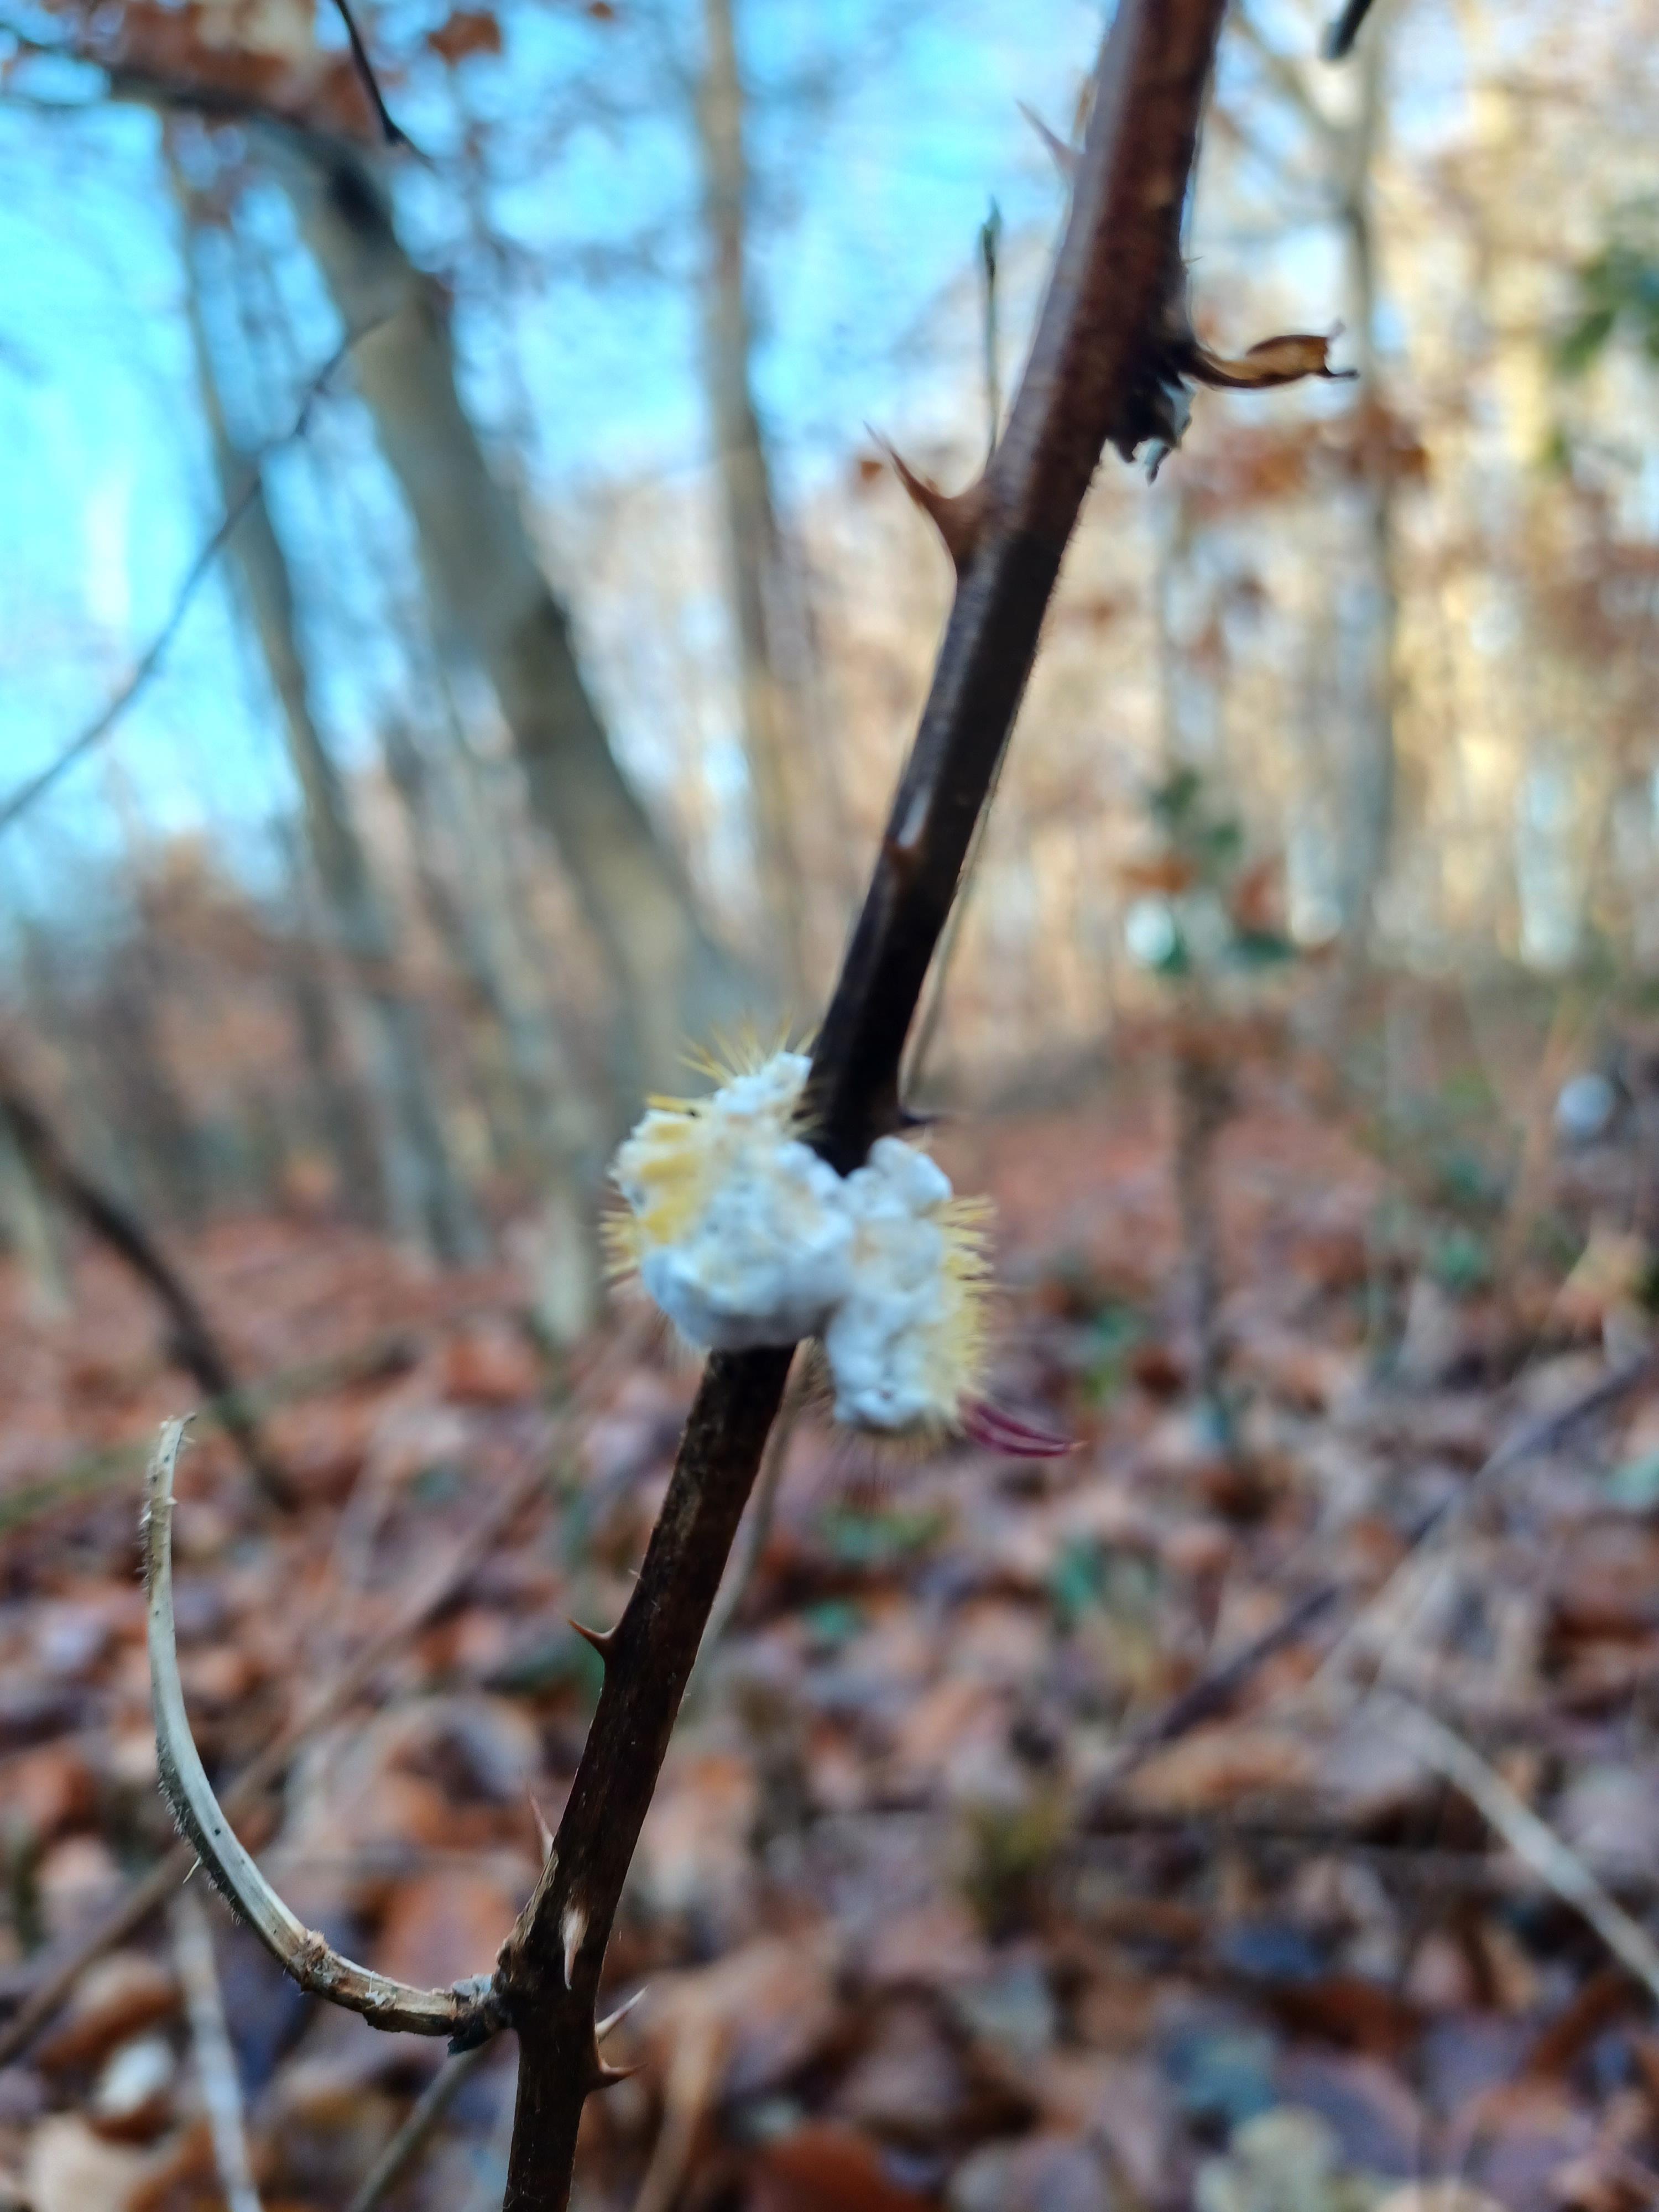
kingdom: Fungi
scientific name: Fungi
